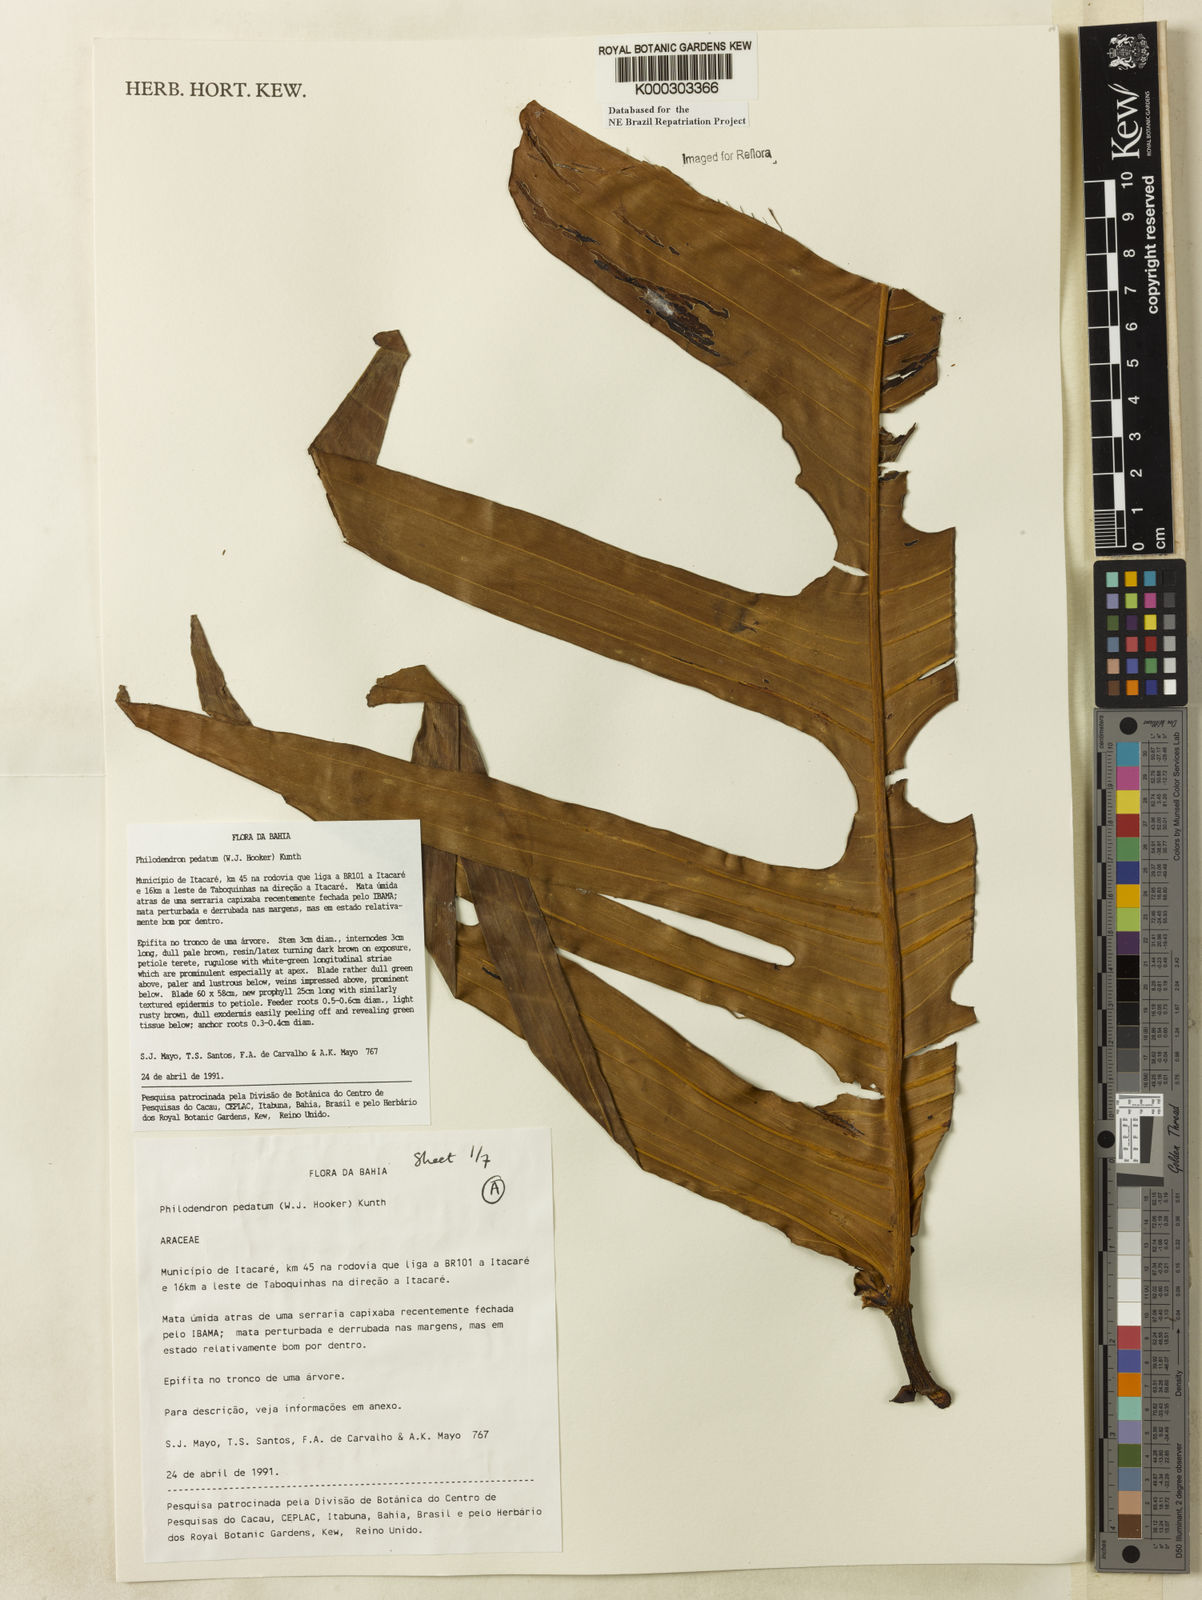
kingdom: Plantae
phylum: Tracheophyta
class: Liliopsida
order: Alismatales
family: Araceae
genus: Philodendron
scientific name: Philodendron pedatum
